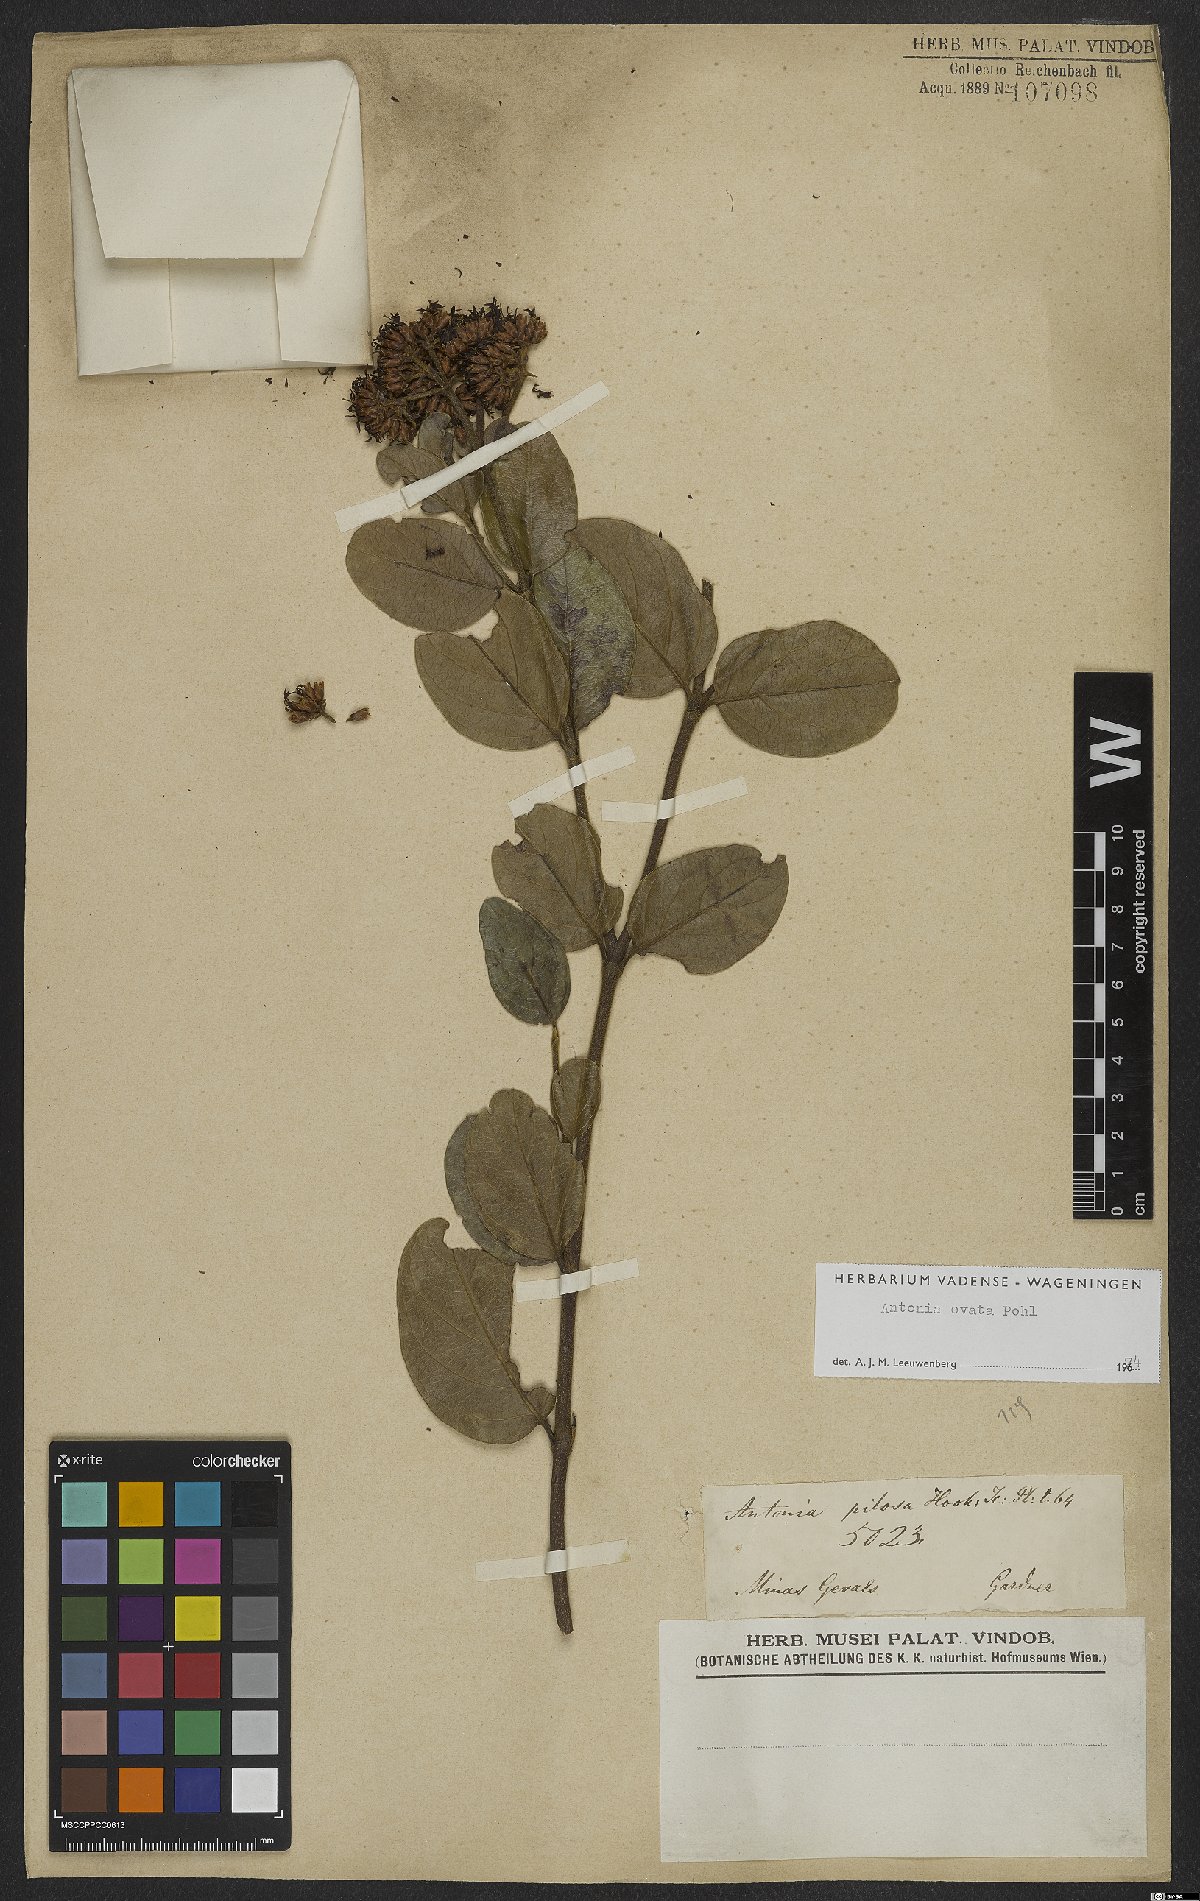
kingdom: Plantae
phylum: Tracheophyta
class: Magnoliopsida
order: Gentianales
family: Loganiaceae
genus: Antonia
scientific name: Antonia ovata
